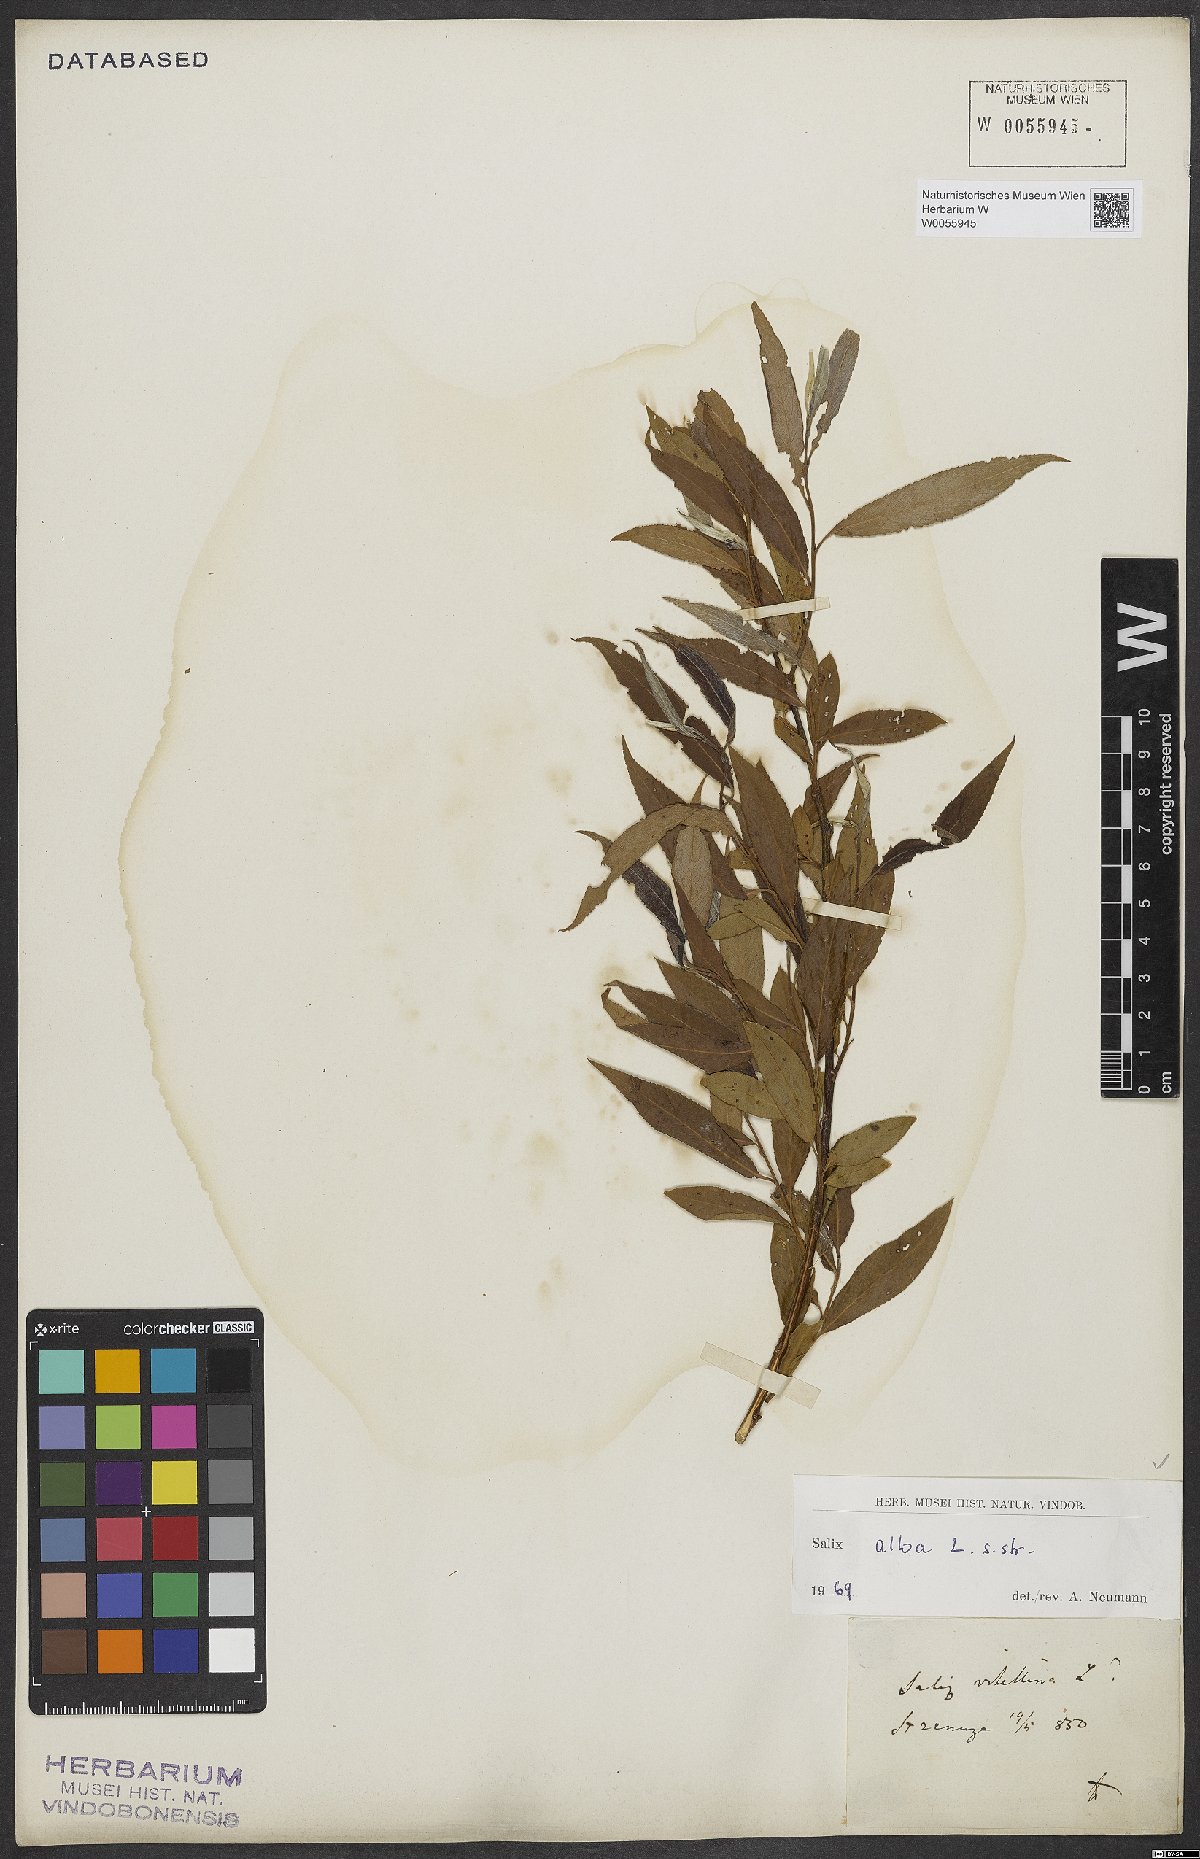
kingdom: Plantae
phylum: Tracheophyta
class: Magnoliopsida
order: Malpighiales
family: Salicaceae
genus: Salix
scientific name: Salix alba
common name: White willow
